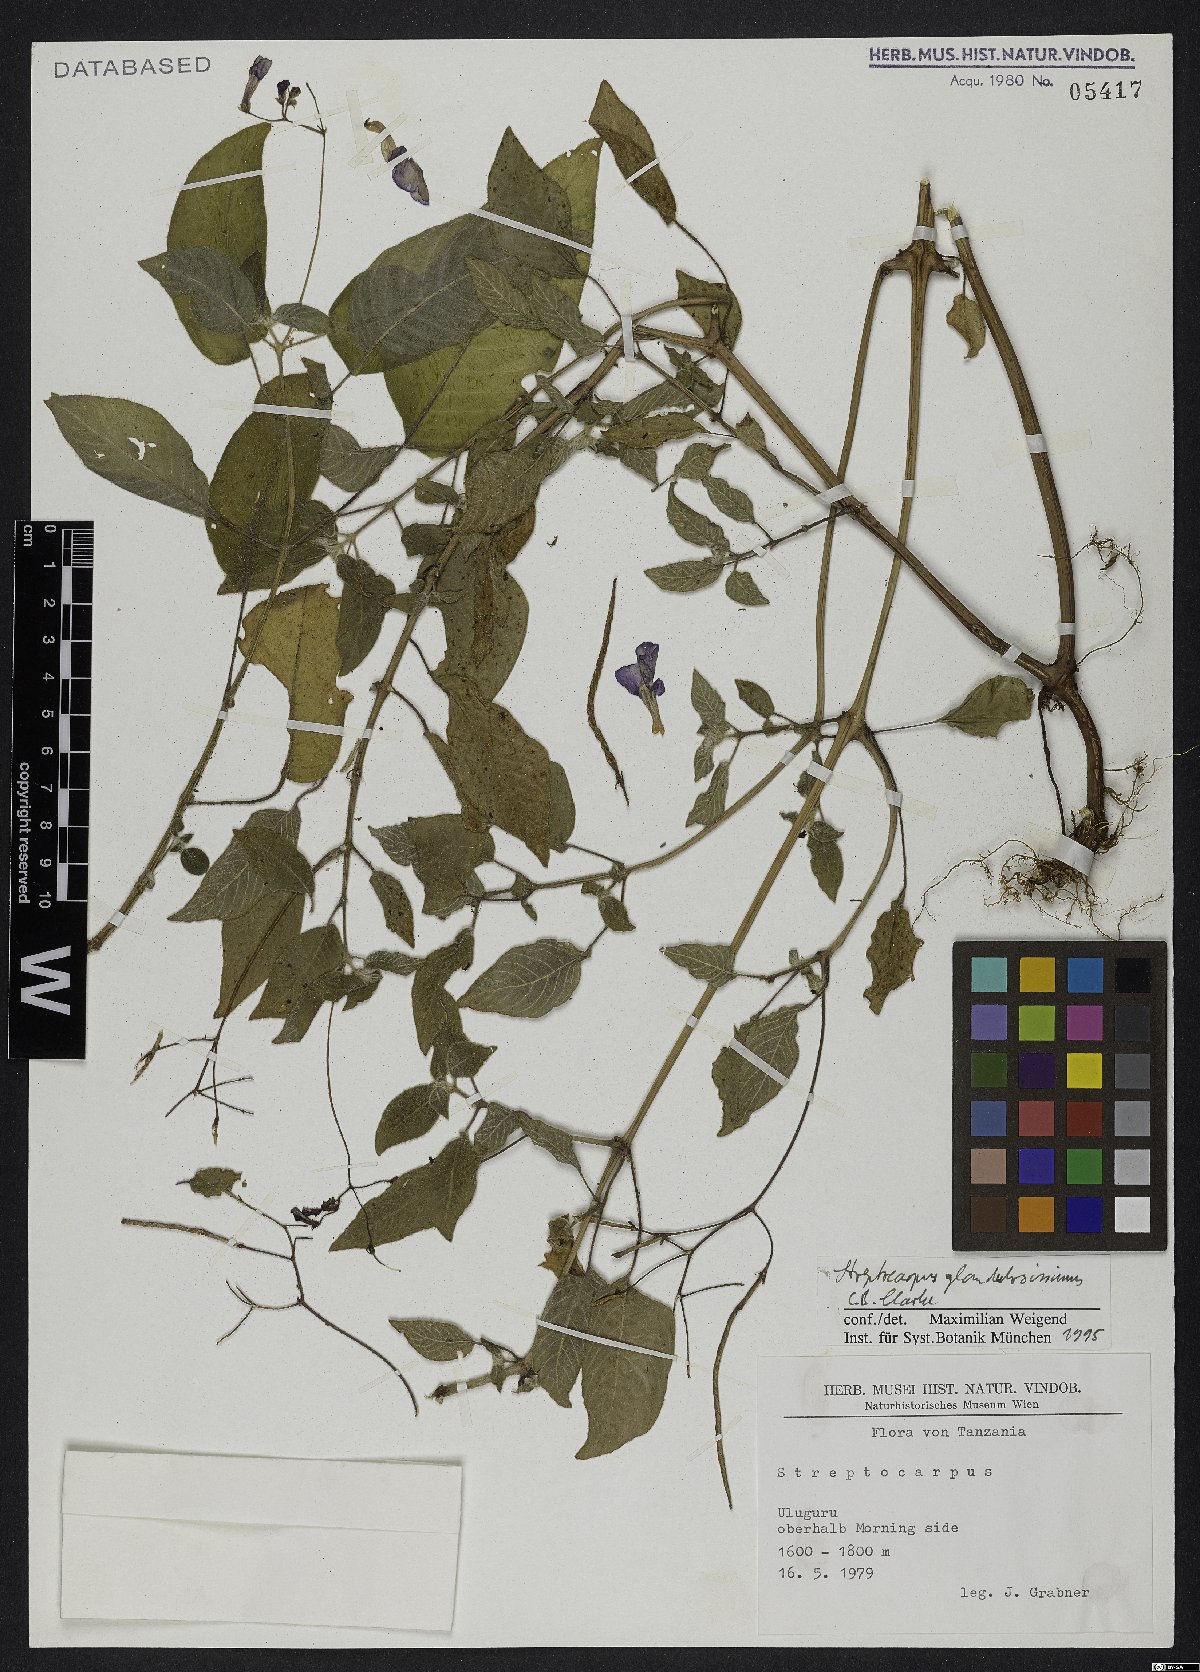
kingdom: Plantae
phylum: Tracheophyta
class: Magnoliopsida
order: Lamiales
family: Gesneriaceae
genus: Streptocarpus
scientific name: Streptocarpus glandulosissimus
